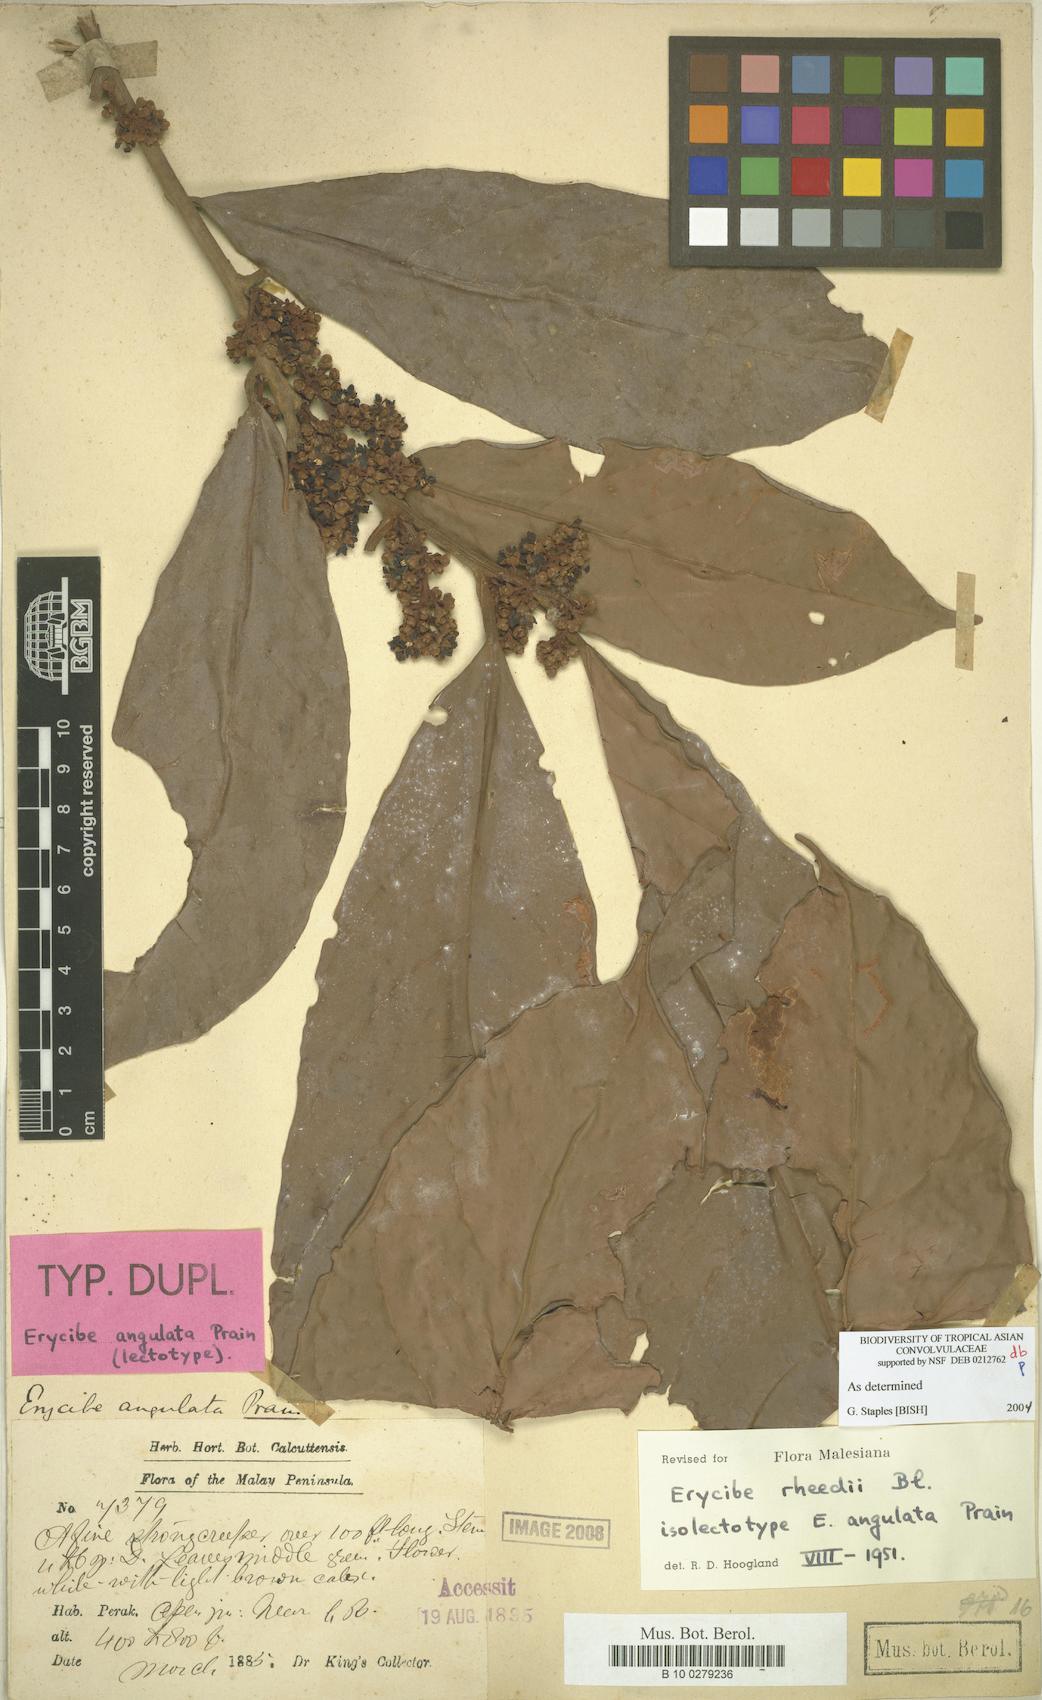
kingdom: Plantae
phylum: Tracheophyta
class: Magnoliopsida
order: Solanales
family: Convolvulaceae
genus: Erycibe
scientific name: Erycibe rheedei
